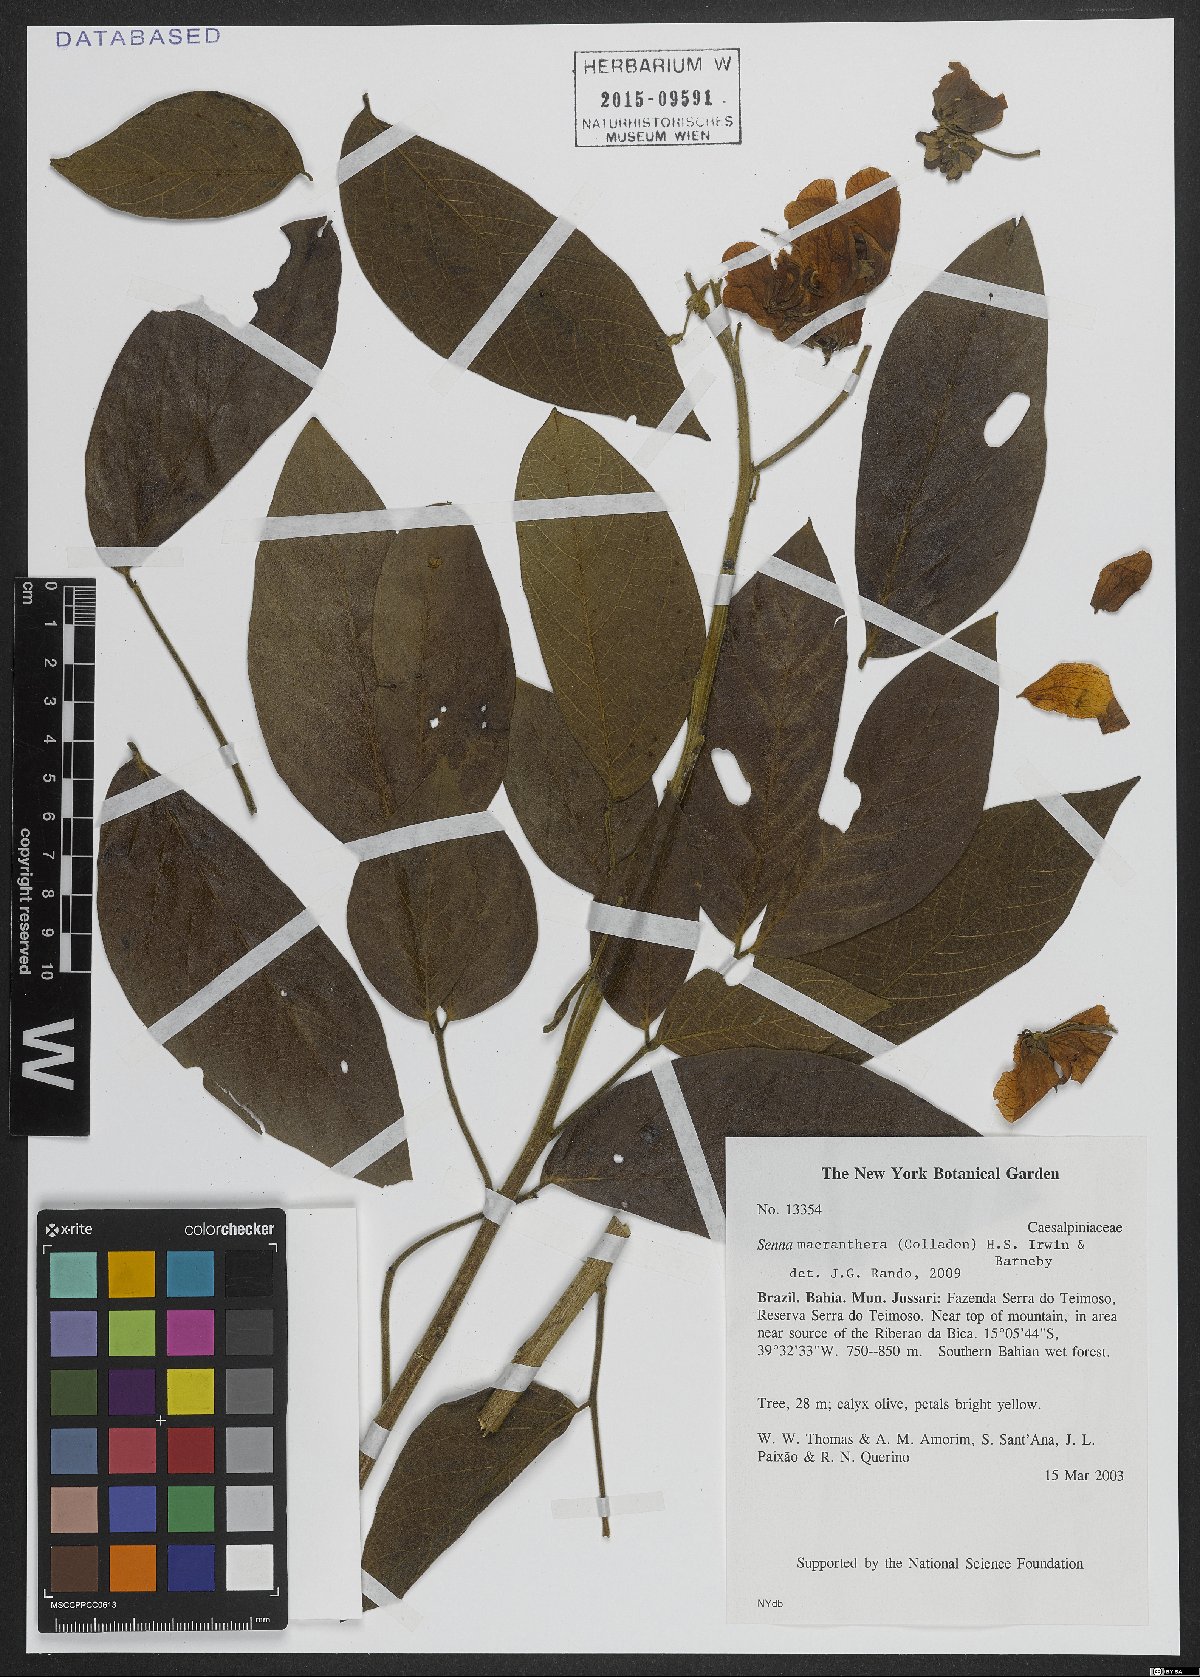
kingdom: Plantae
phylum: Tracheophyta
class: Magnoliopsida
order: Fabales
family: Fabaceae
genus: Senna
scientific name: Senna macranthera
